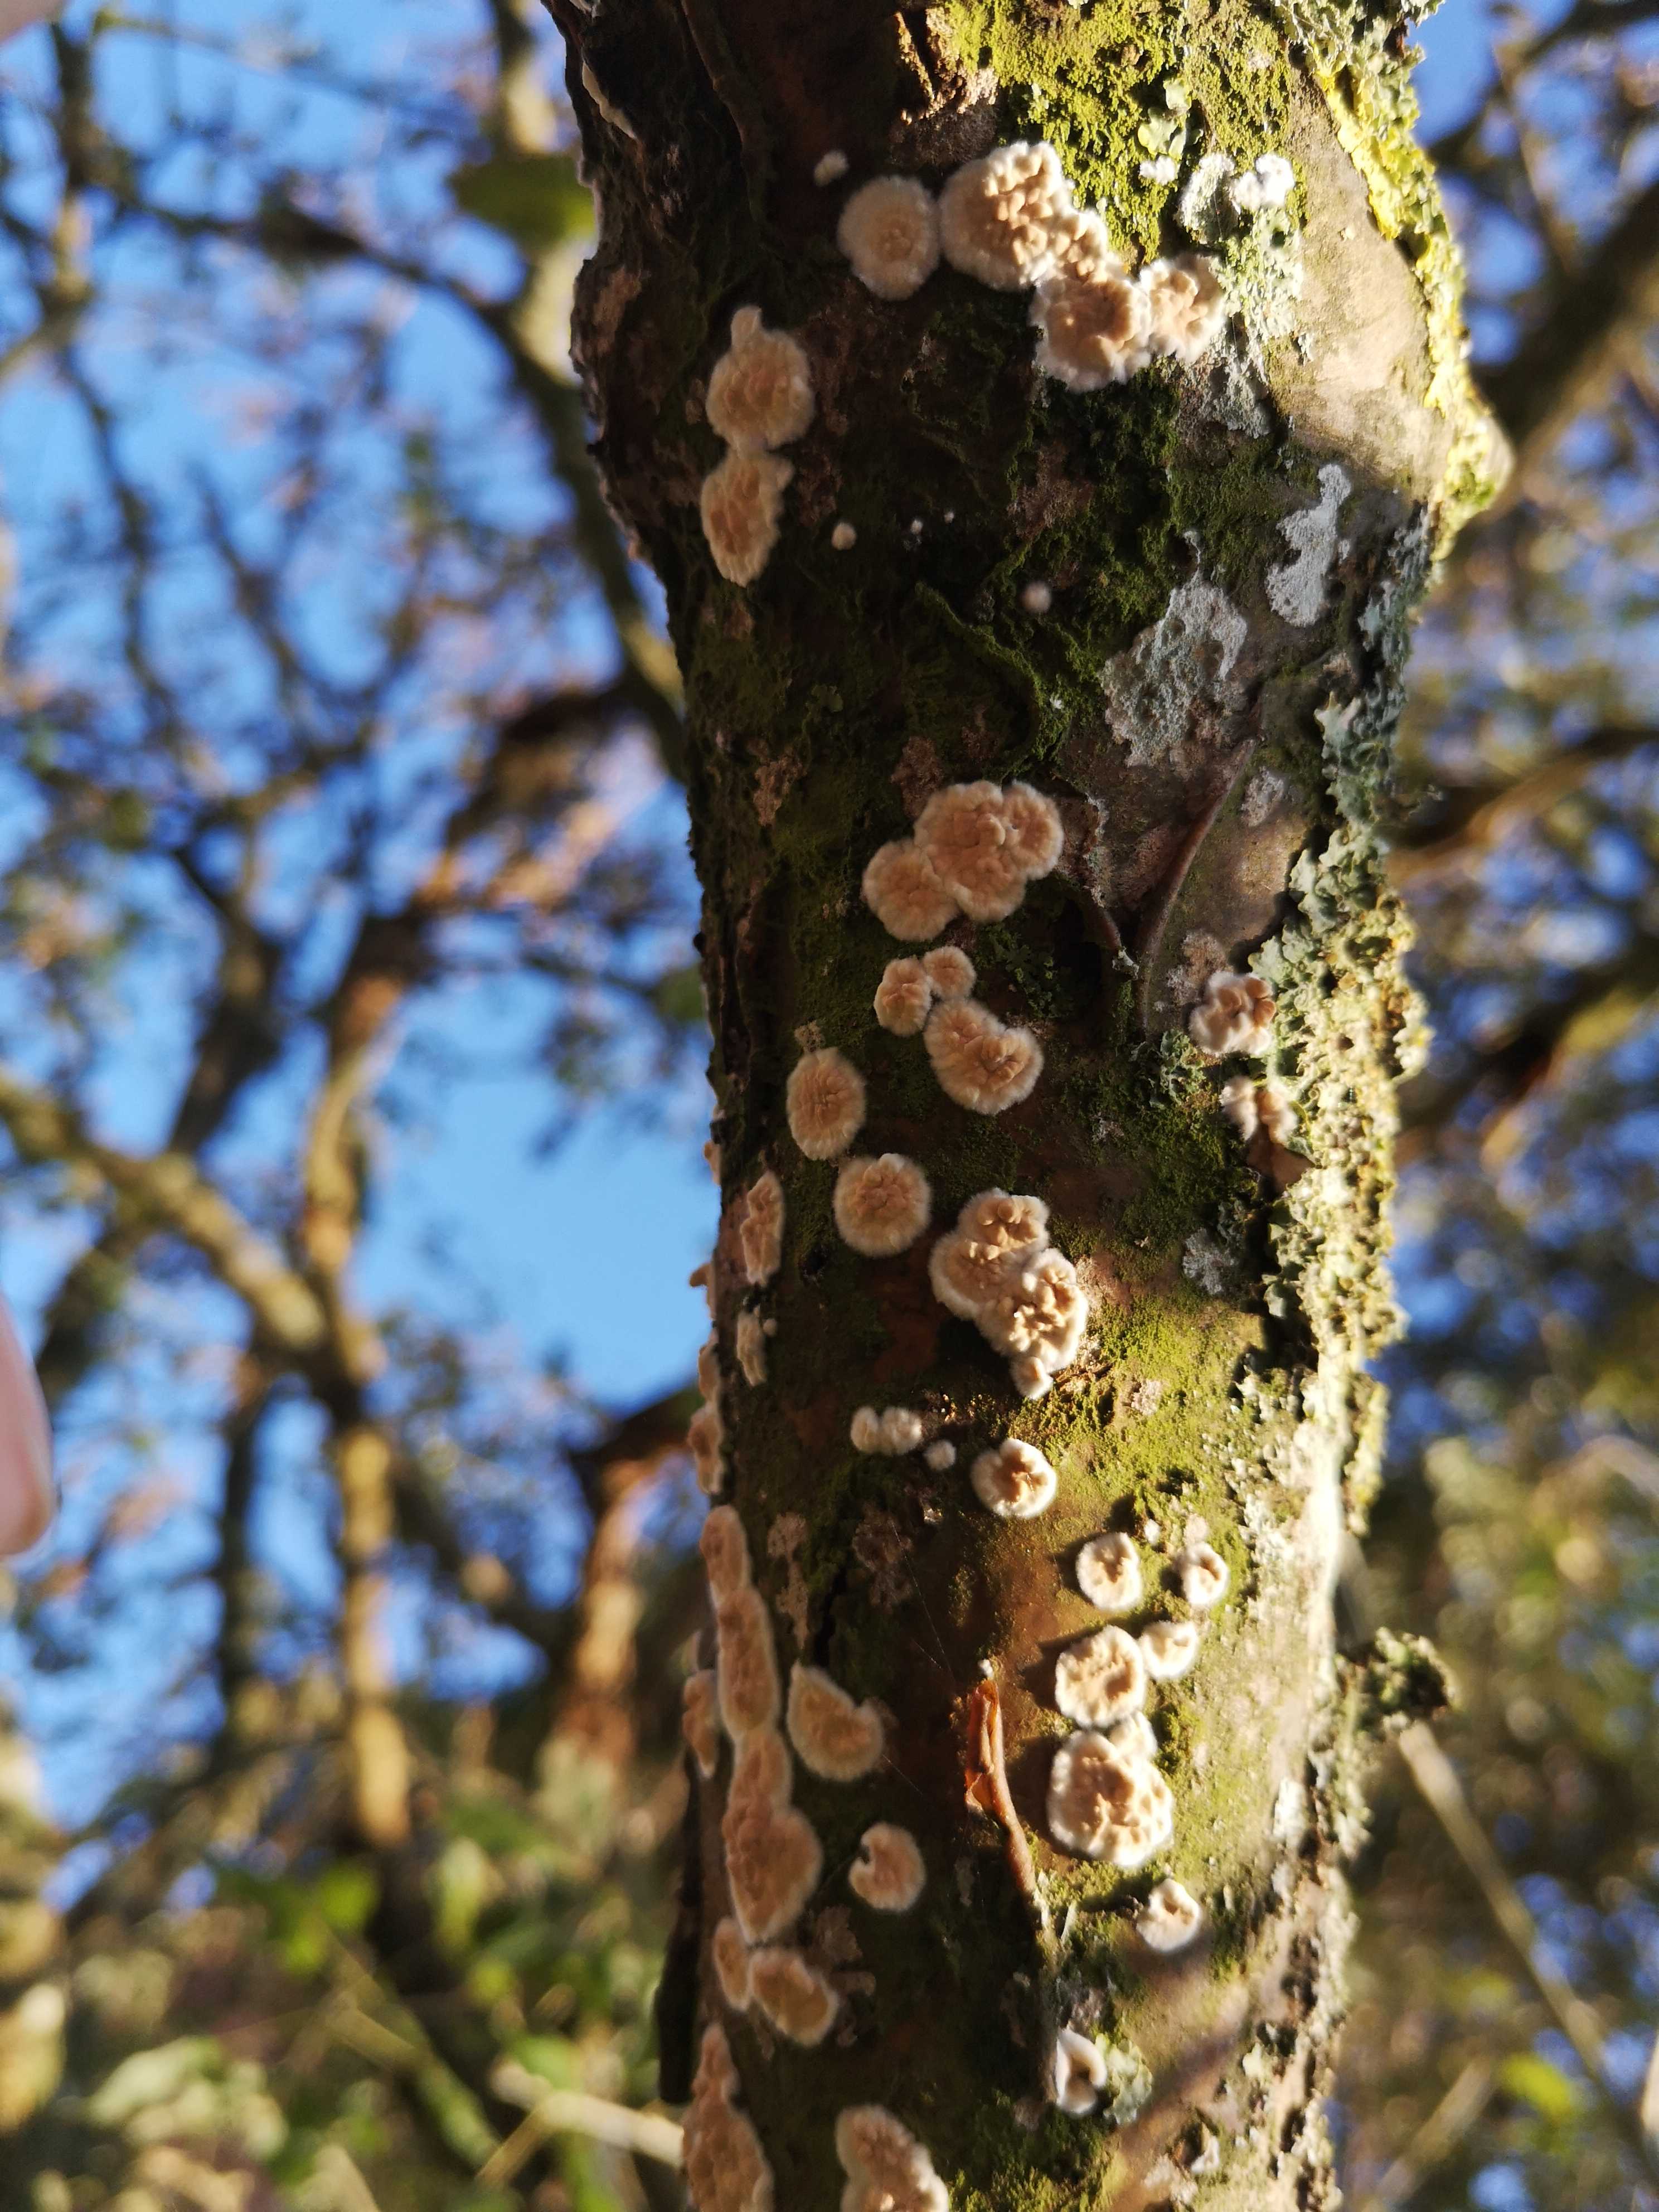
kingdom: Fungi
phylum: Basidiomycota
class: Agaricomycetes
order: Hymenochaetales
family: Schizoporaceae
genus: Xylodon
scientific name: Xylodon radula
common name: grovtandet kalkskind
